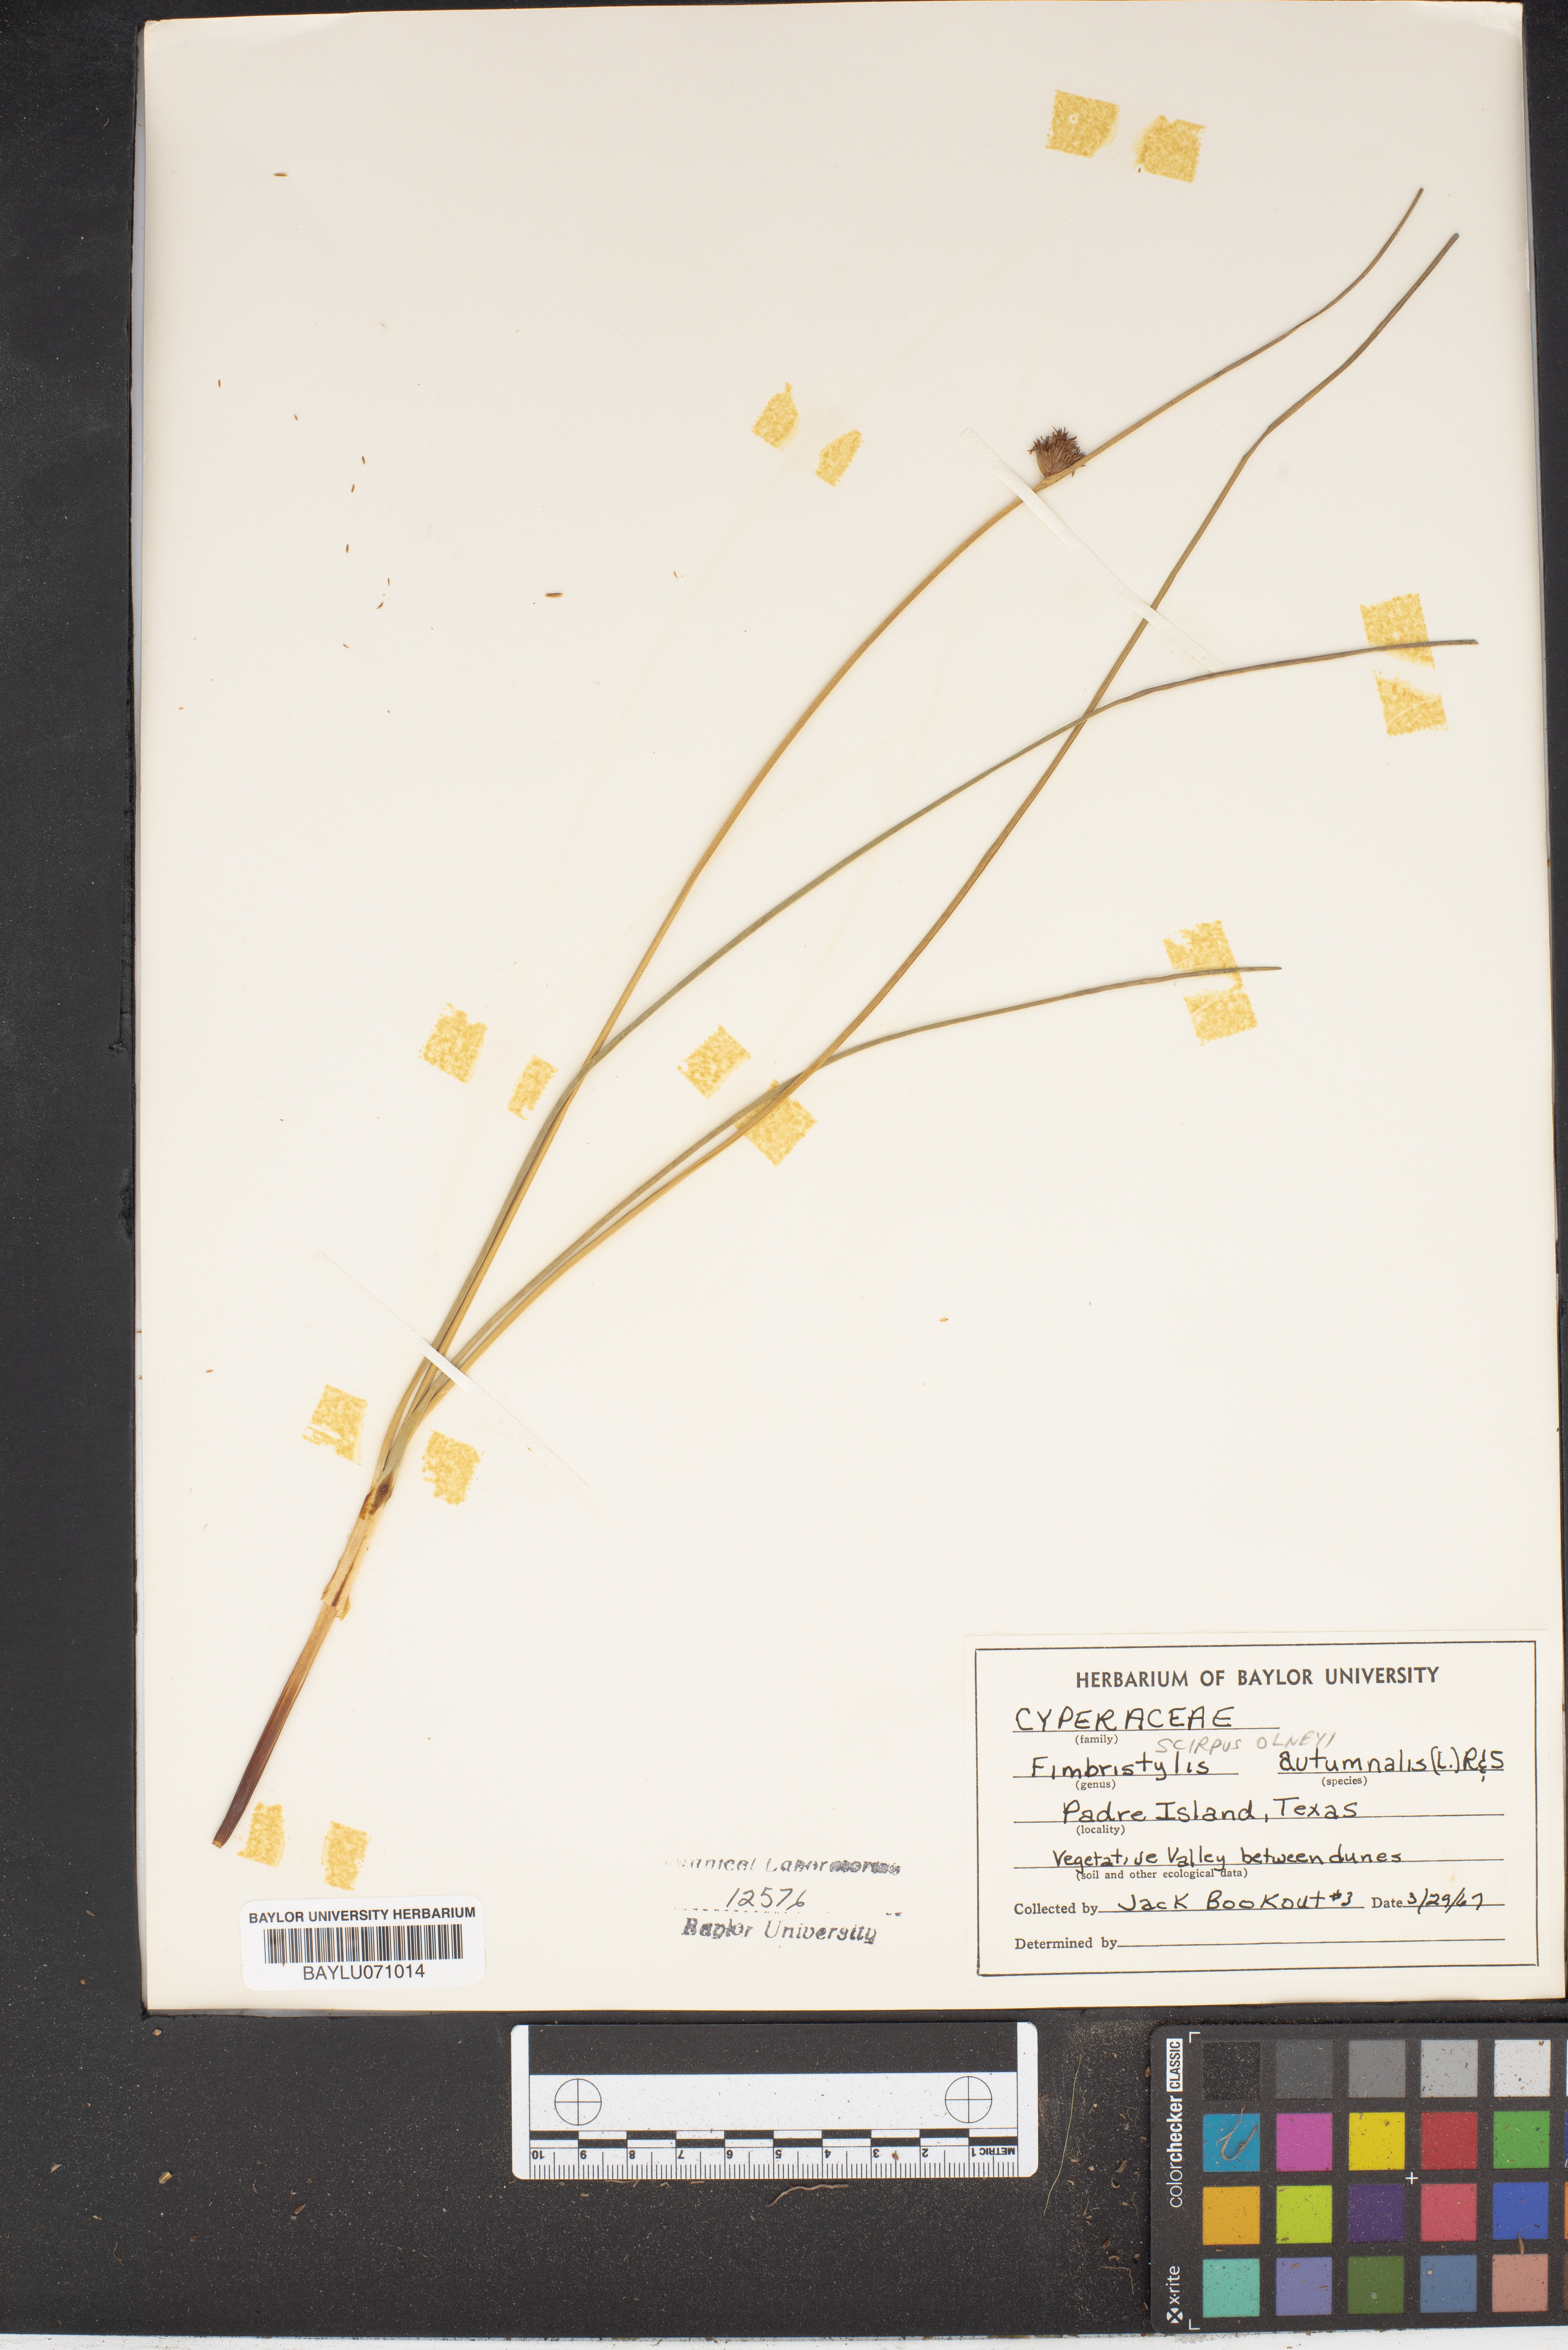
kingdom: Plantae
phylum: Tracheophyta
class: Liliopsida
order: Poales
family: Cyperaceae
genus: Fimbristylis
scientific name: Fimbristylis autumnalis
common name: Slender fimbristylis
